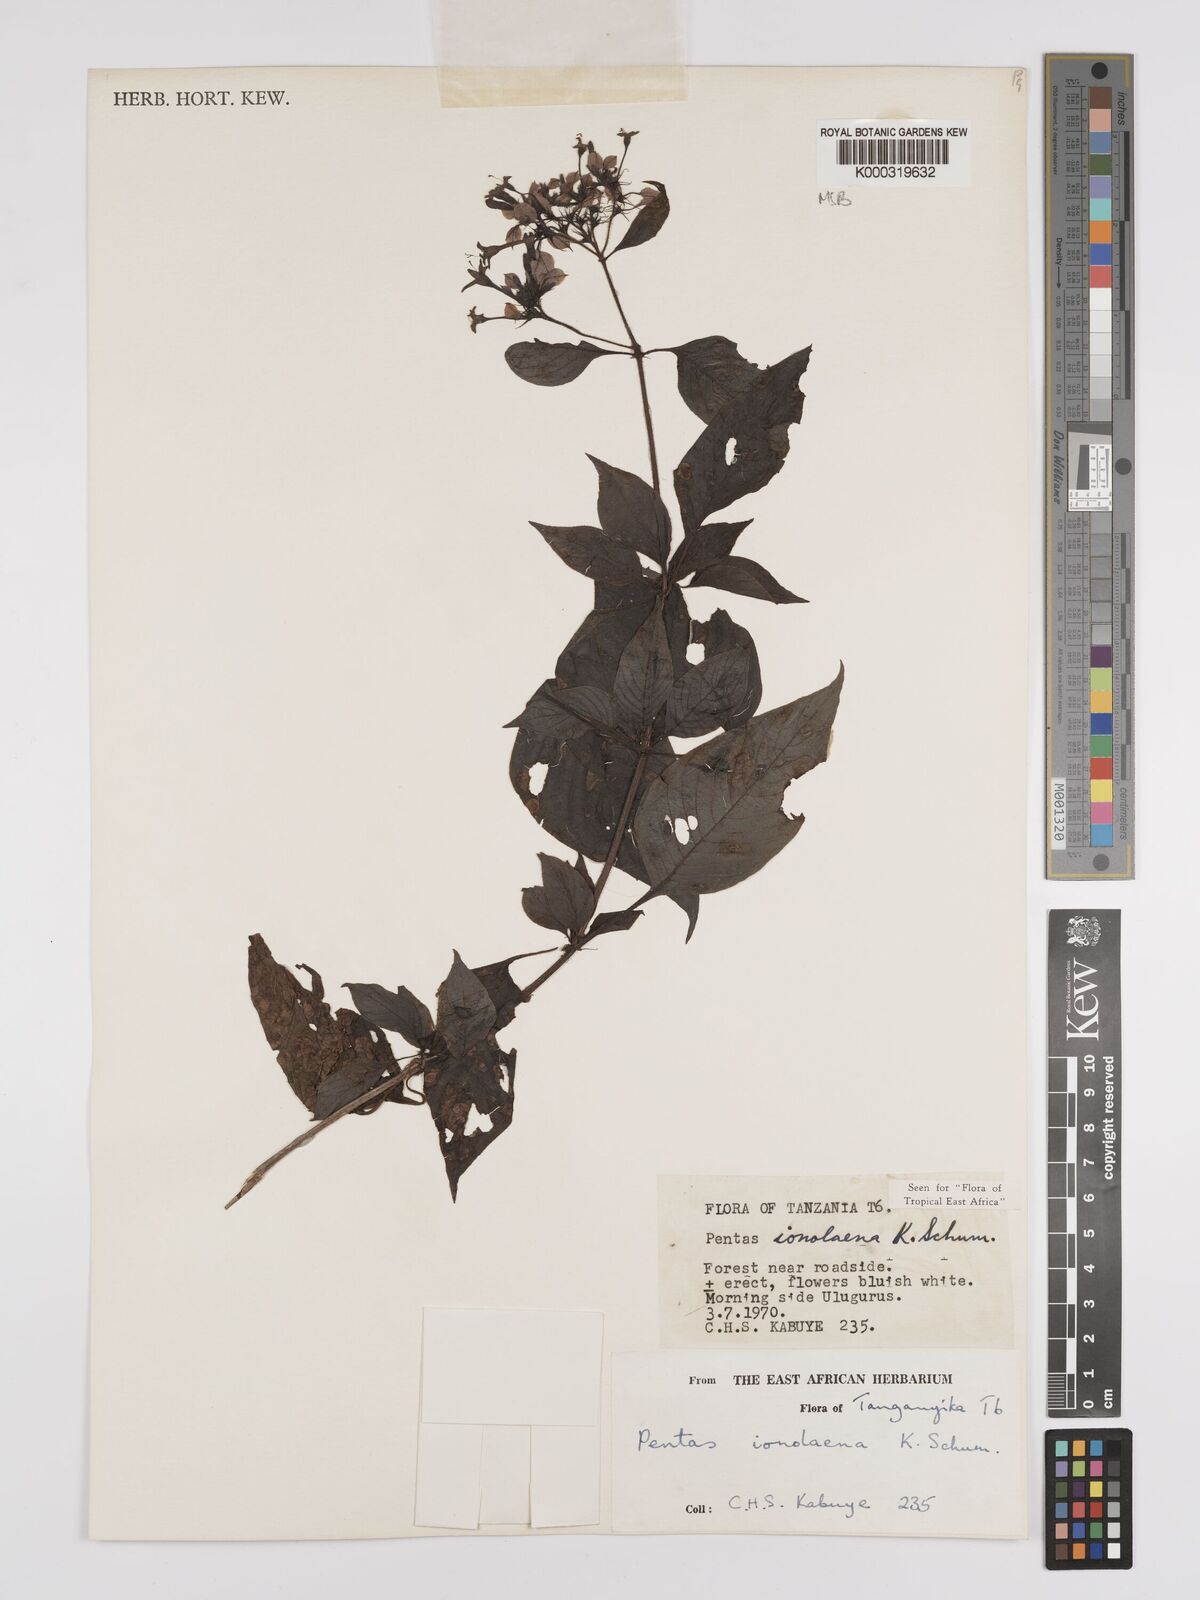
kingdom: Plantae
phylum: Tracheophyta
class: Magnoliopsida
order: Gentianales
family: Rubiaceae
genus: Phyllopentas
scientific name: Phyllopentas ionolaena
